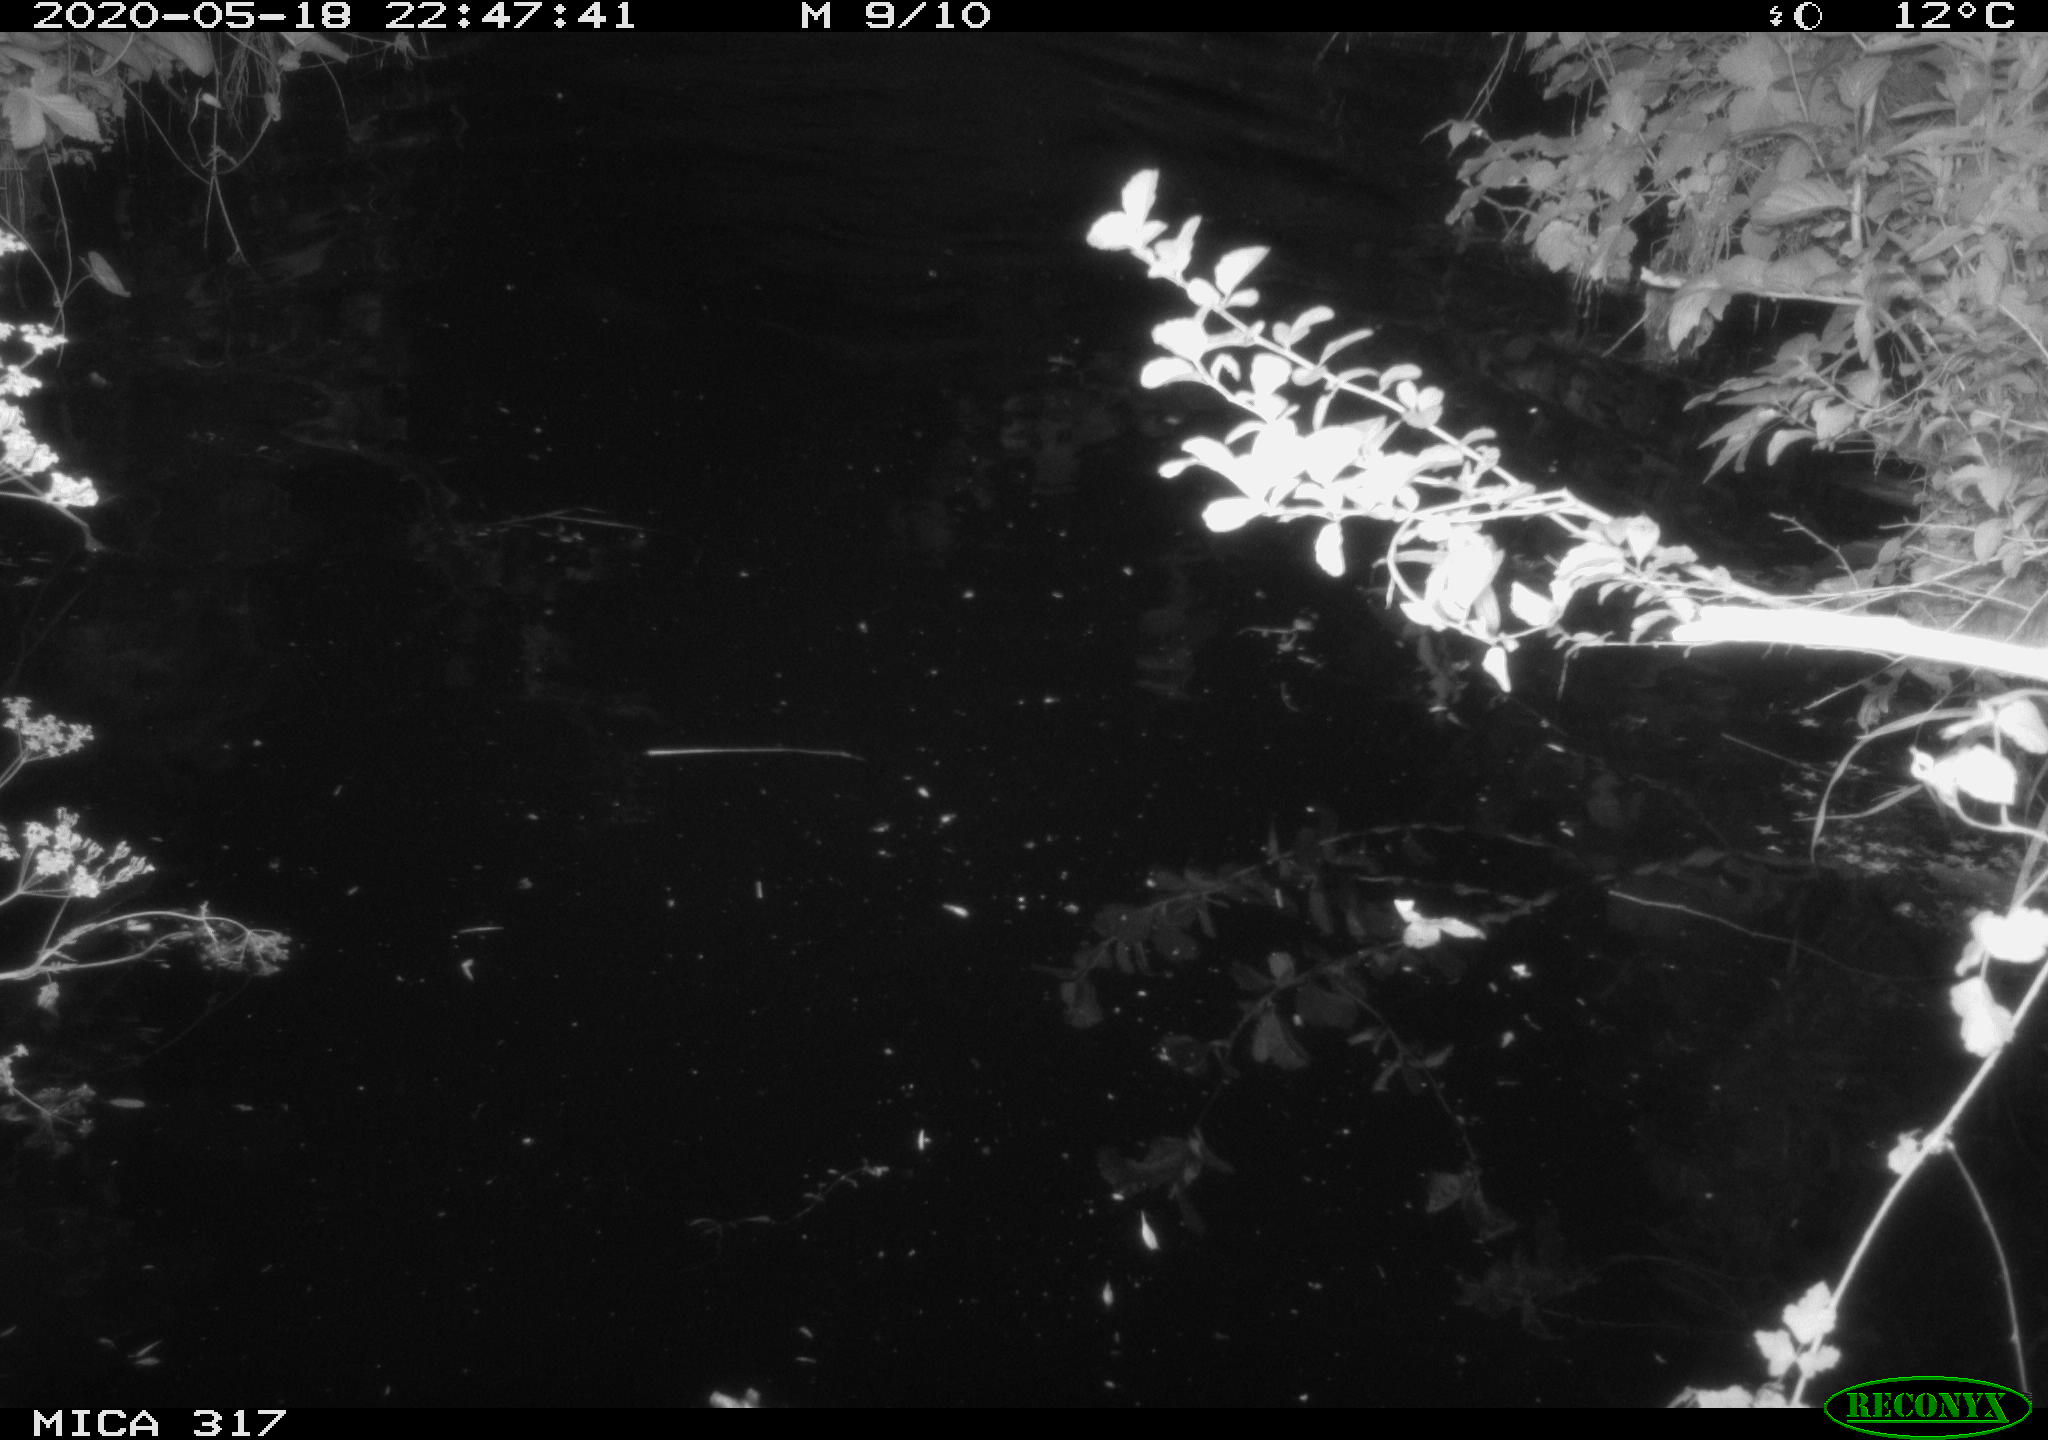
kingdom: Animalia
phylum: Chordata
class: Aves
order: Anseriformes
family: Anatidae
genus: Anas
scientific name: Anas platyrhynchos
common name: Mallard
